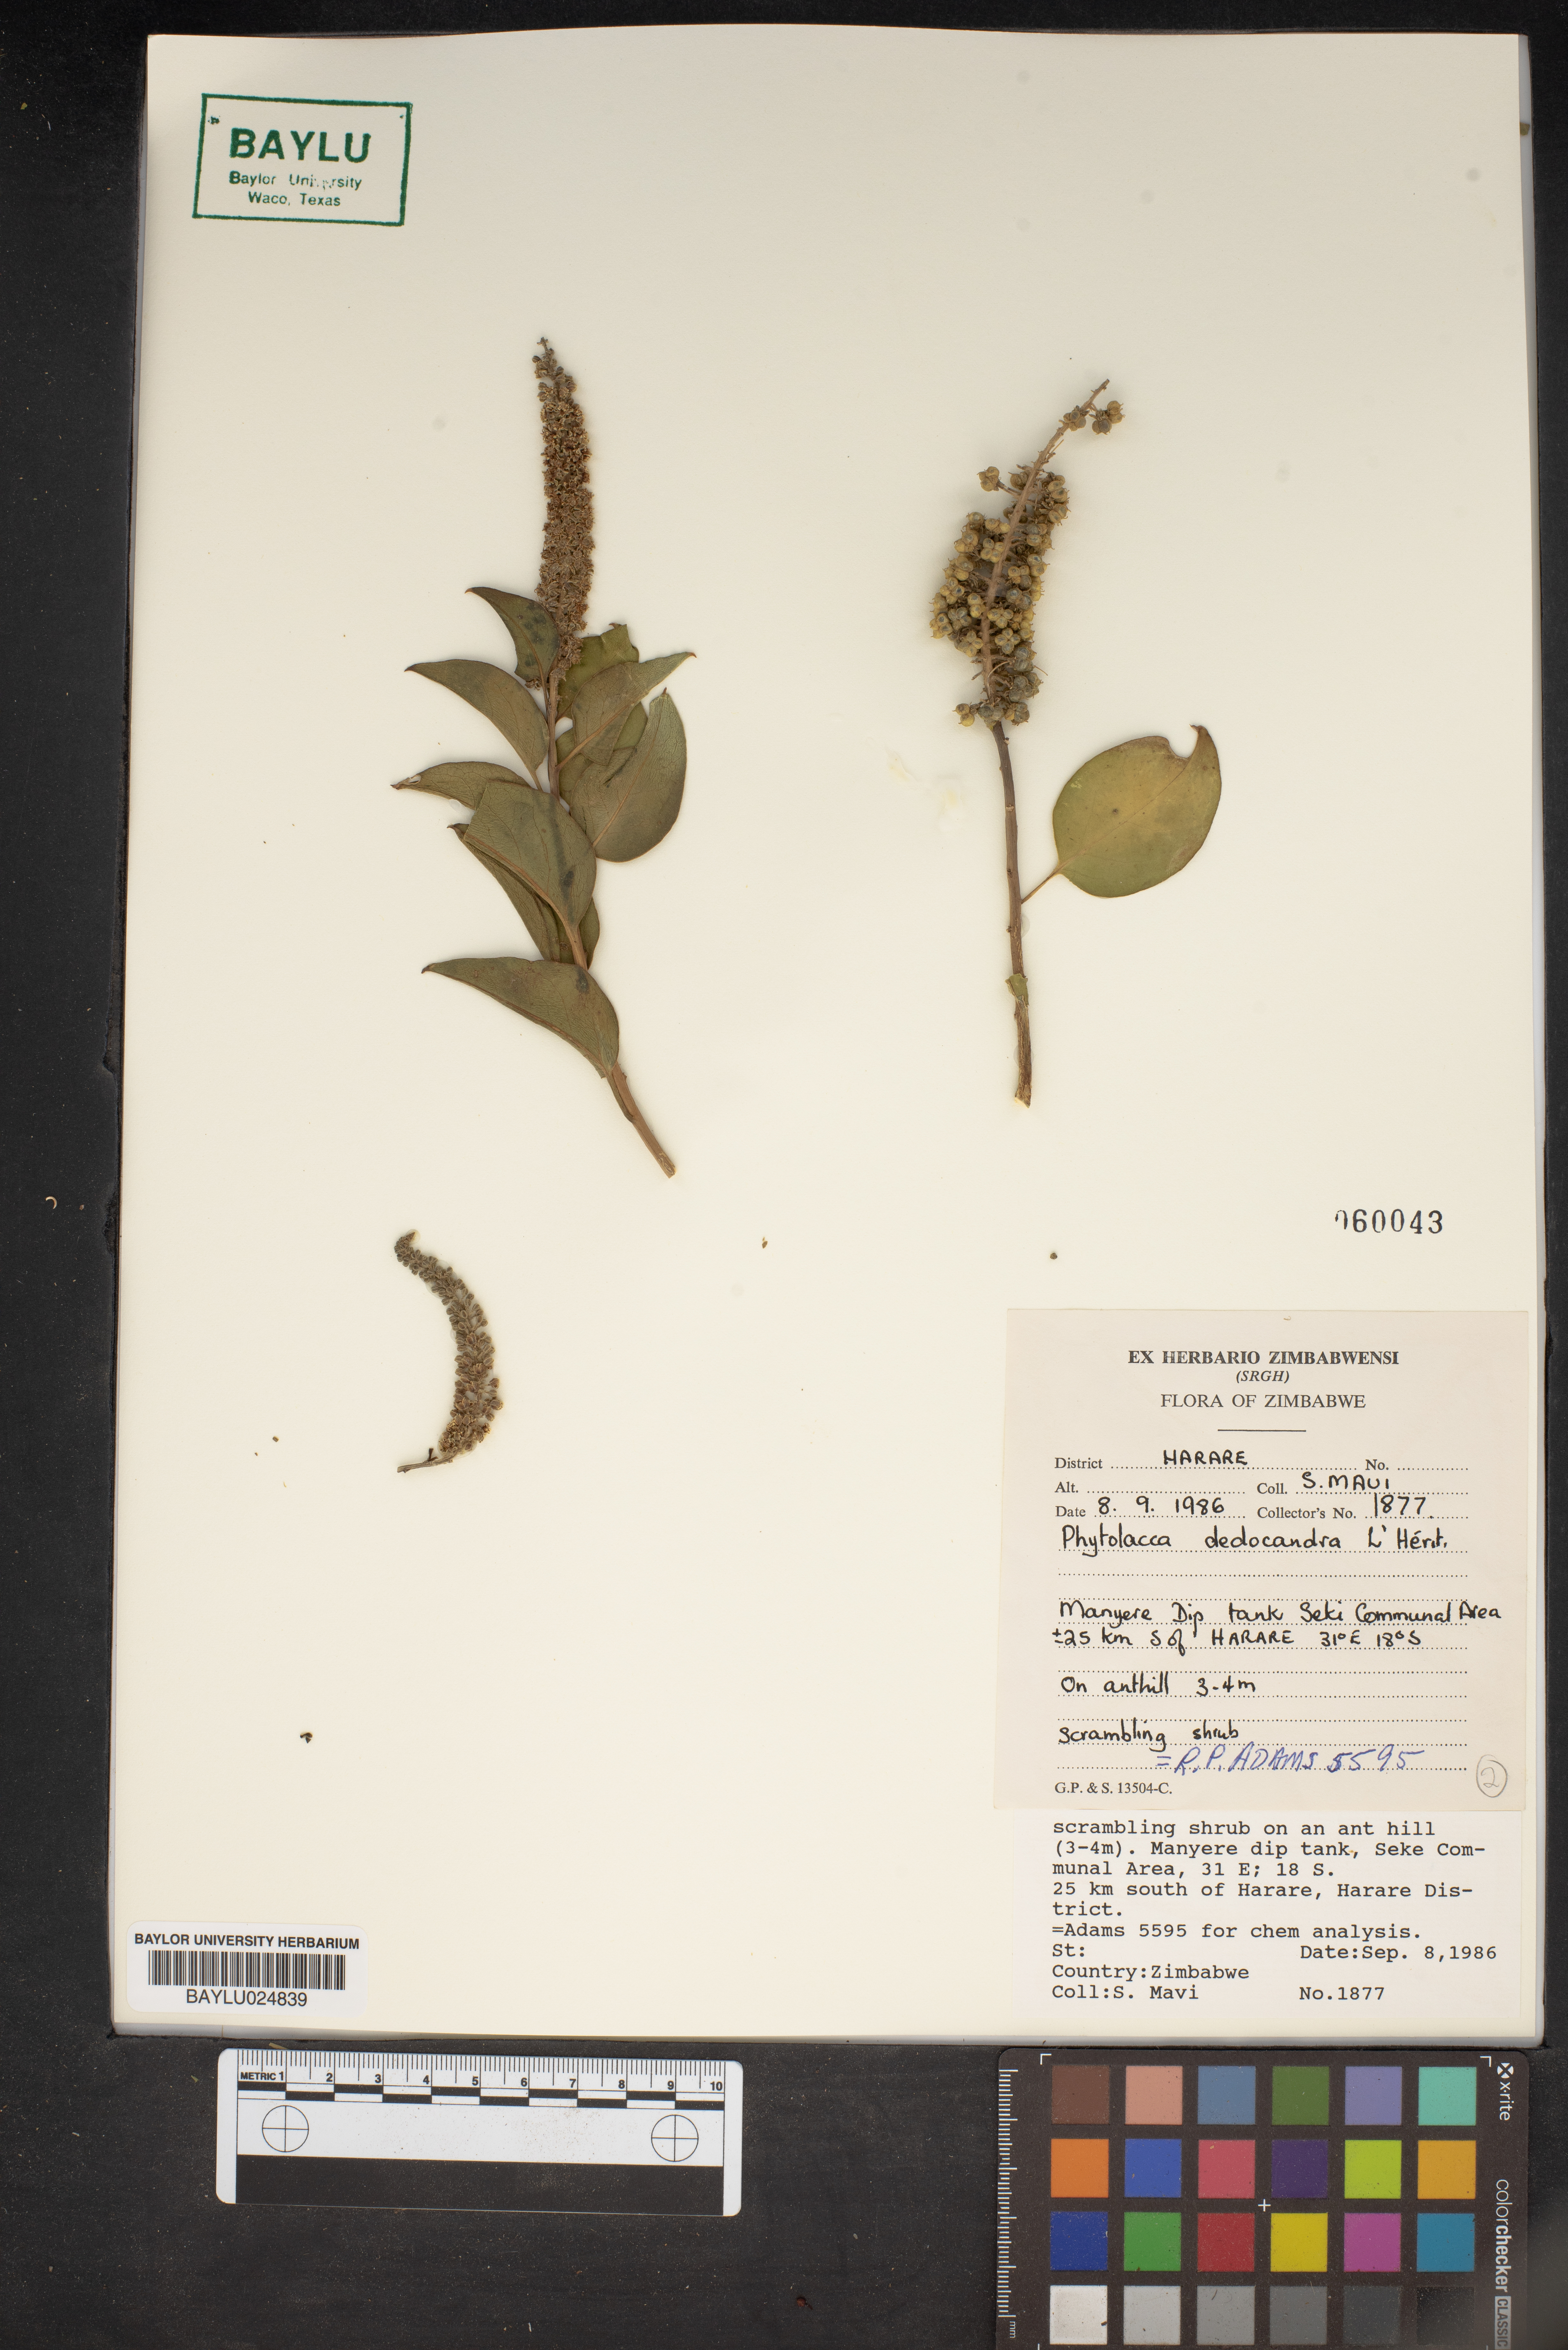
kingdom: Plantae
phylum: Tracheophyta
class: Magnoliopsida
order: Caryophyllales
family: Phytolaccaceae
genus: Phytolacca
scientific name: Phytolacca dodecandra
